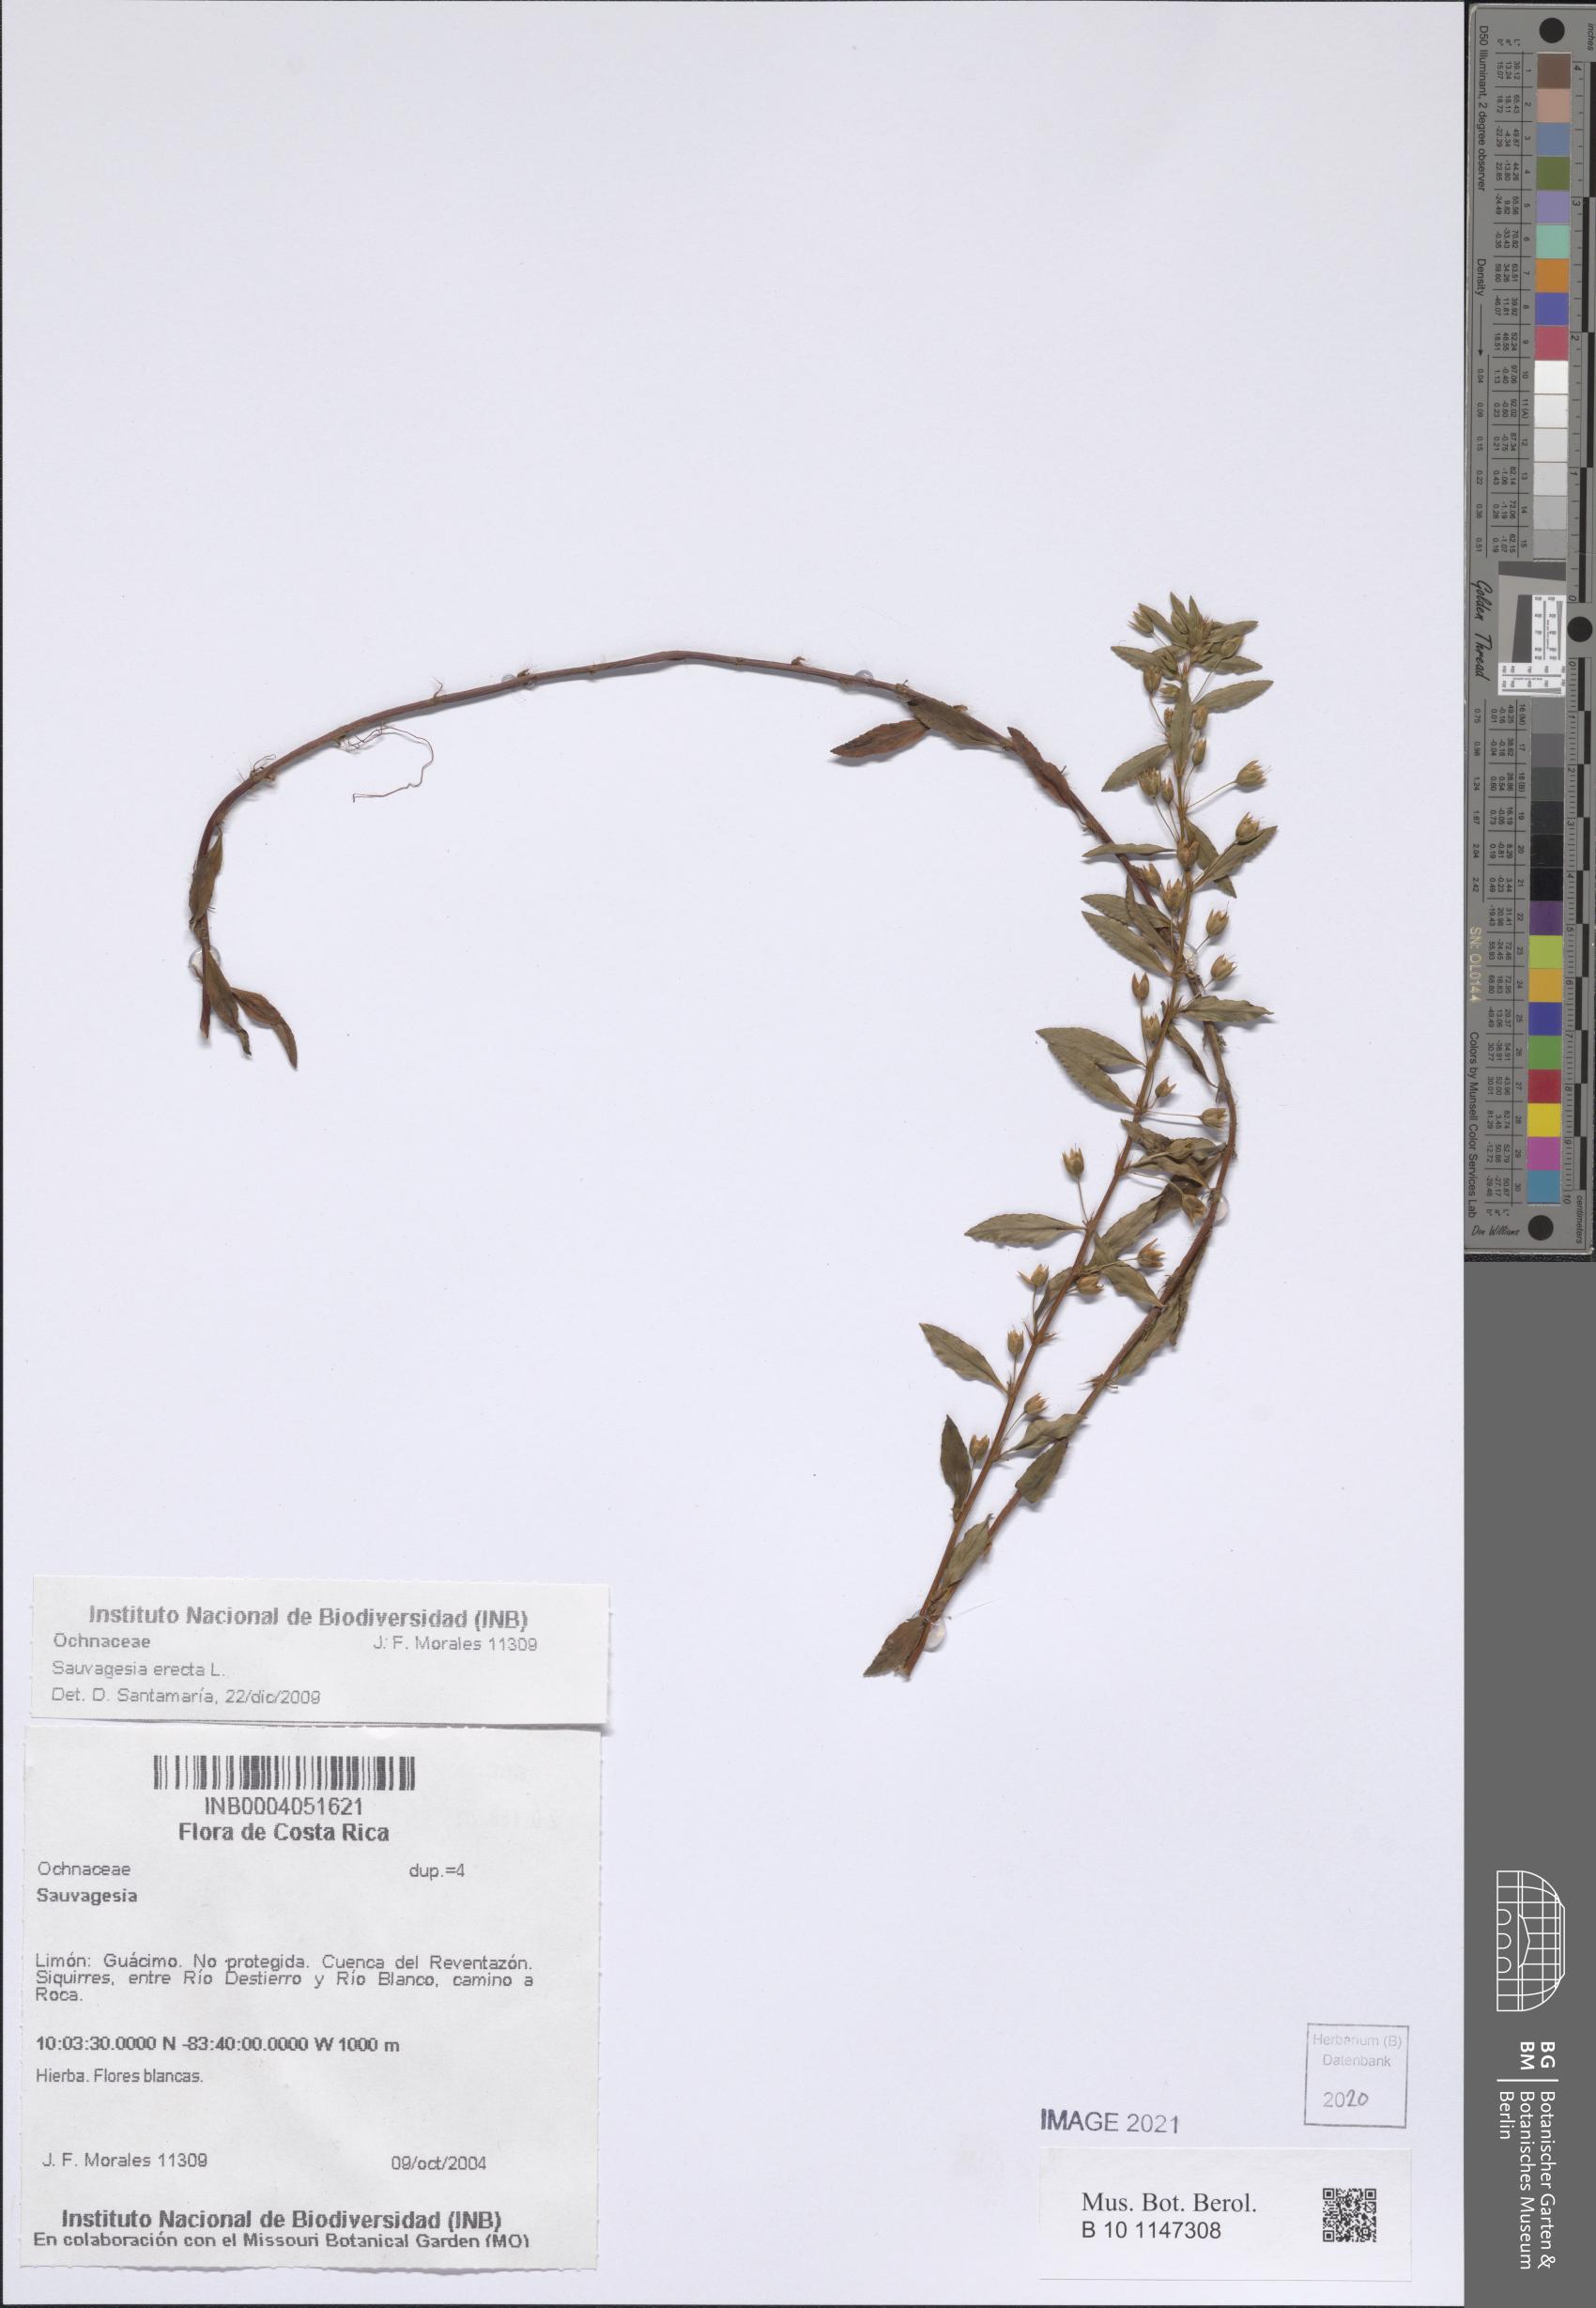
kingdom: Plantae
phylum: Tracheophyta
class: Magnoliopsida
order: Malpighiales
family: Ochnaceae
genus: Sauvagesia
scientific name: Sauvagesia erecta
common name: Creole tea
